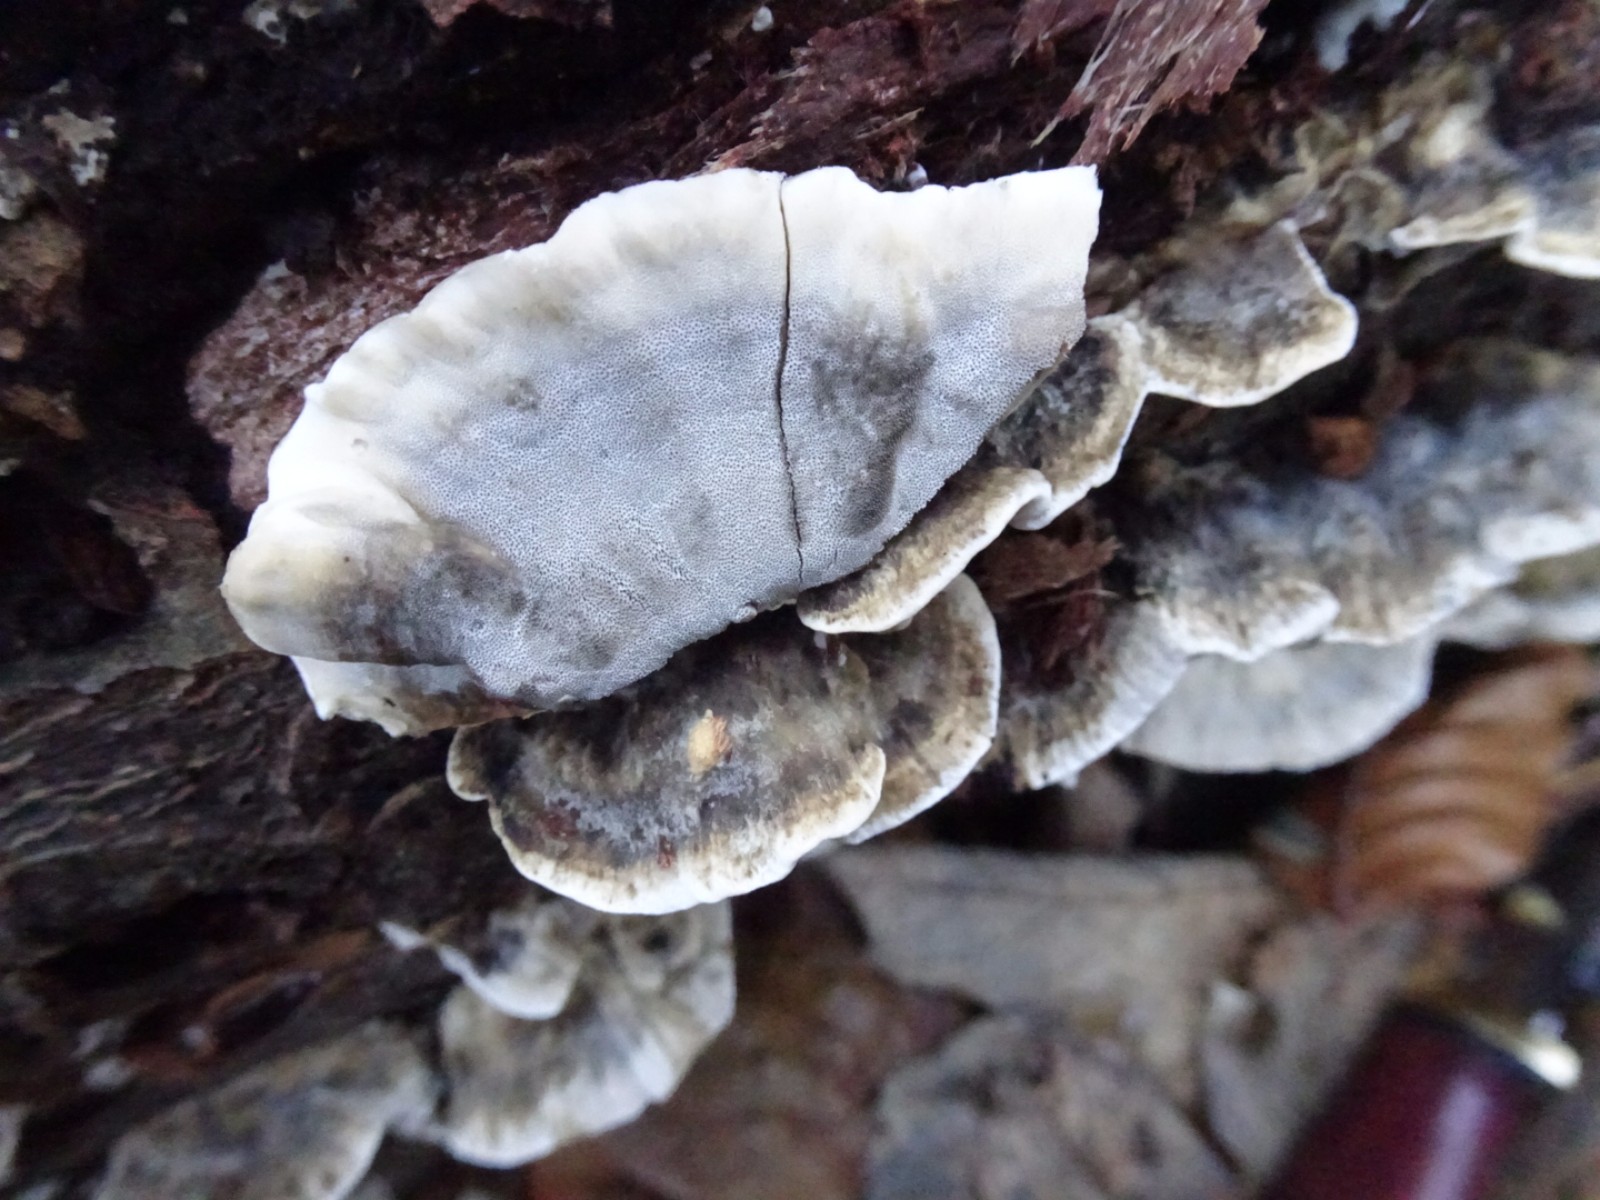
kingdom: Fungi
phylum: Basidiomycota
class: Agaricomycetes
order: Polyporales
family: Phanerochaetaceae
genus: Bjerkandera
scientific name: Bjerkandera adusta
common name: sveden sodporesvamp
